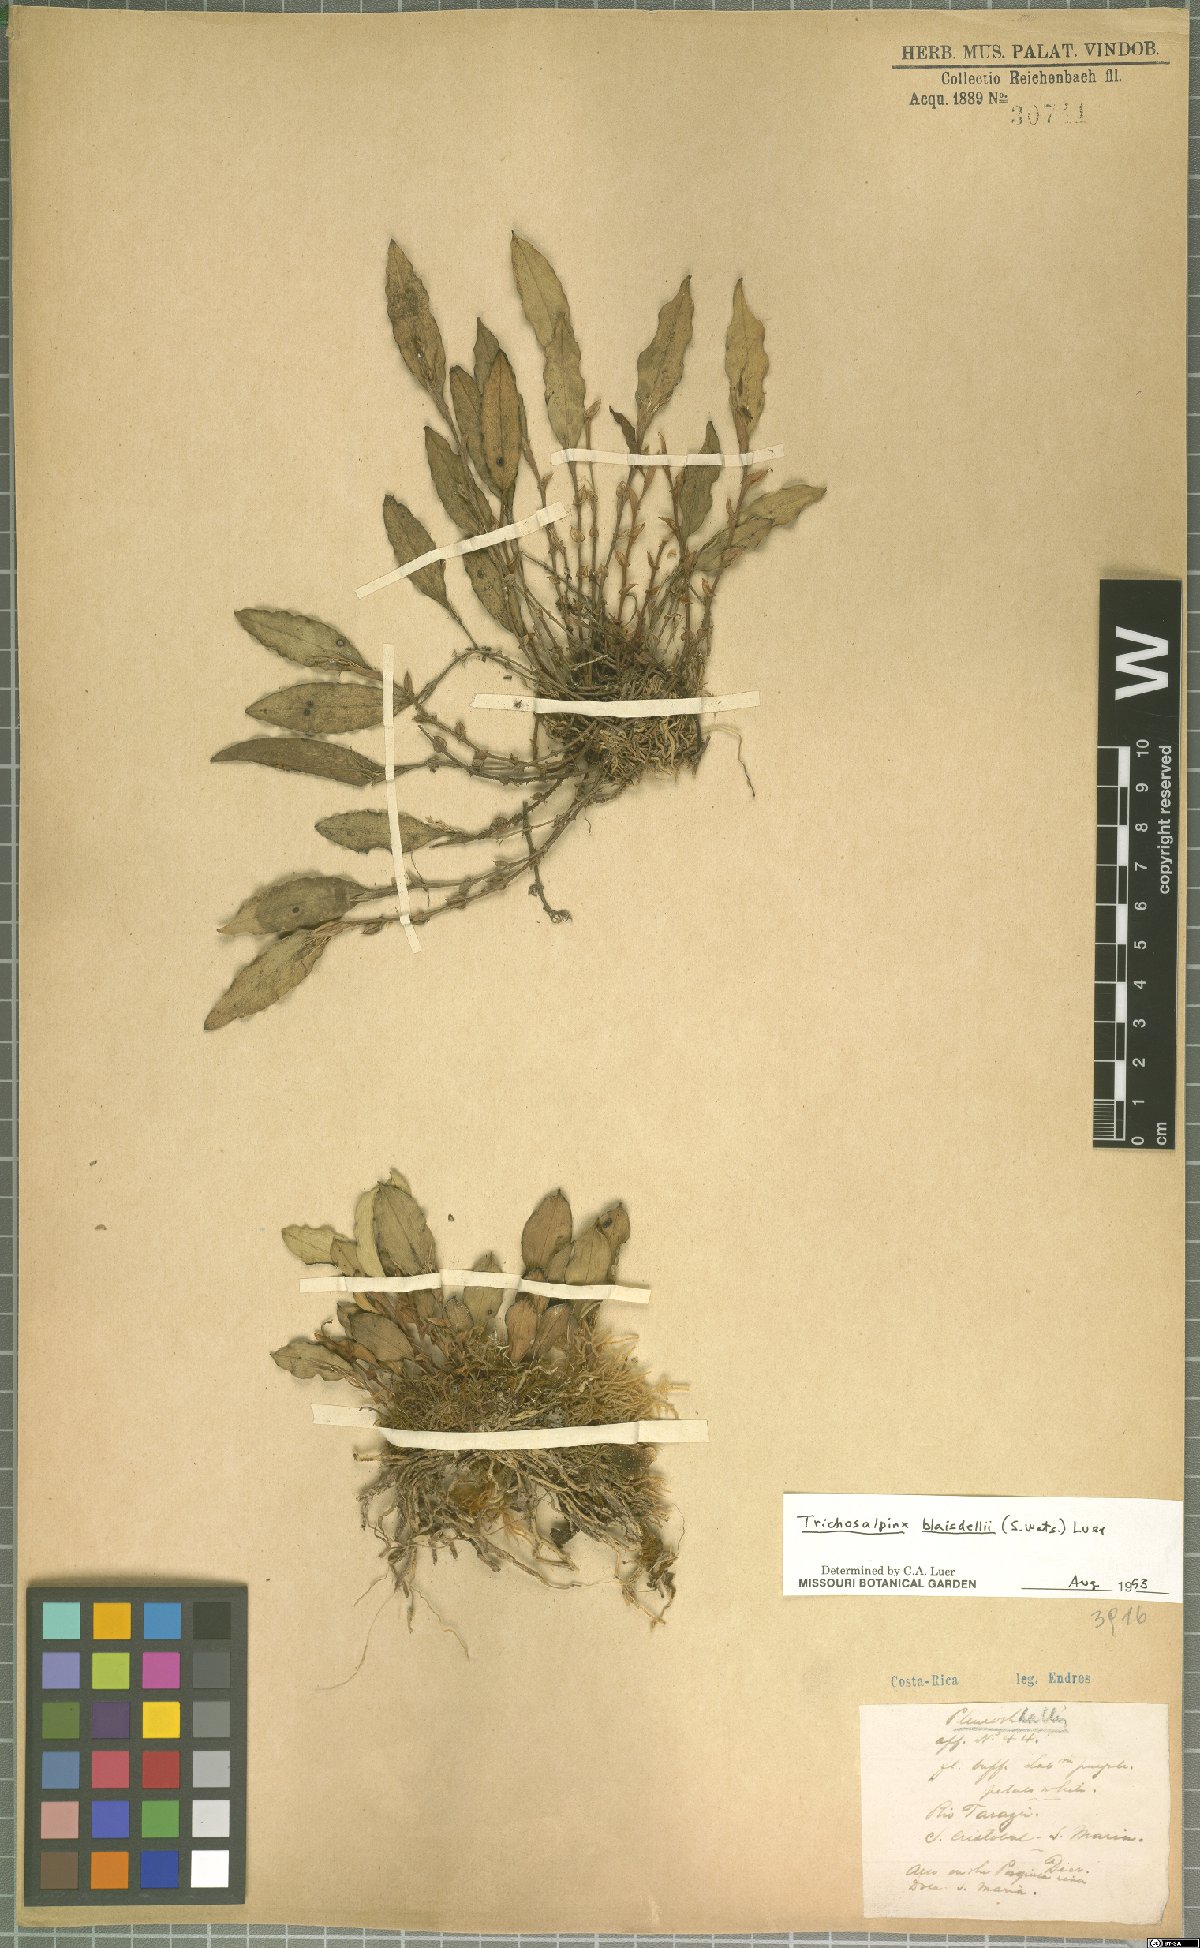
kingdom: Plantae
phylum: Tracheophyta
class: Liliopsida
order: Asparagales
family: Orchidaceae
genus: Trichosalpinx
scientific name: Trichosalpinx blaisdellii
